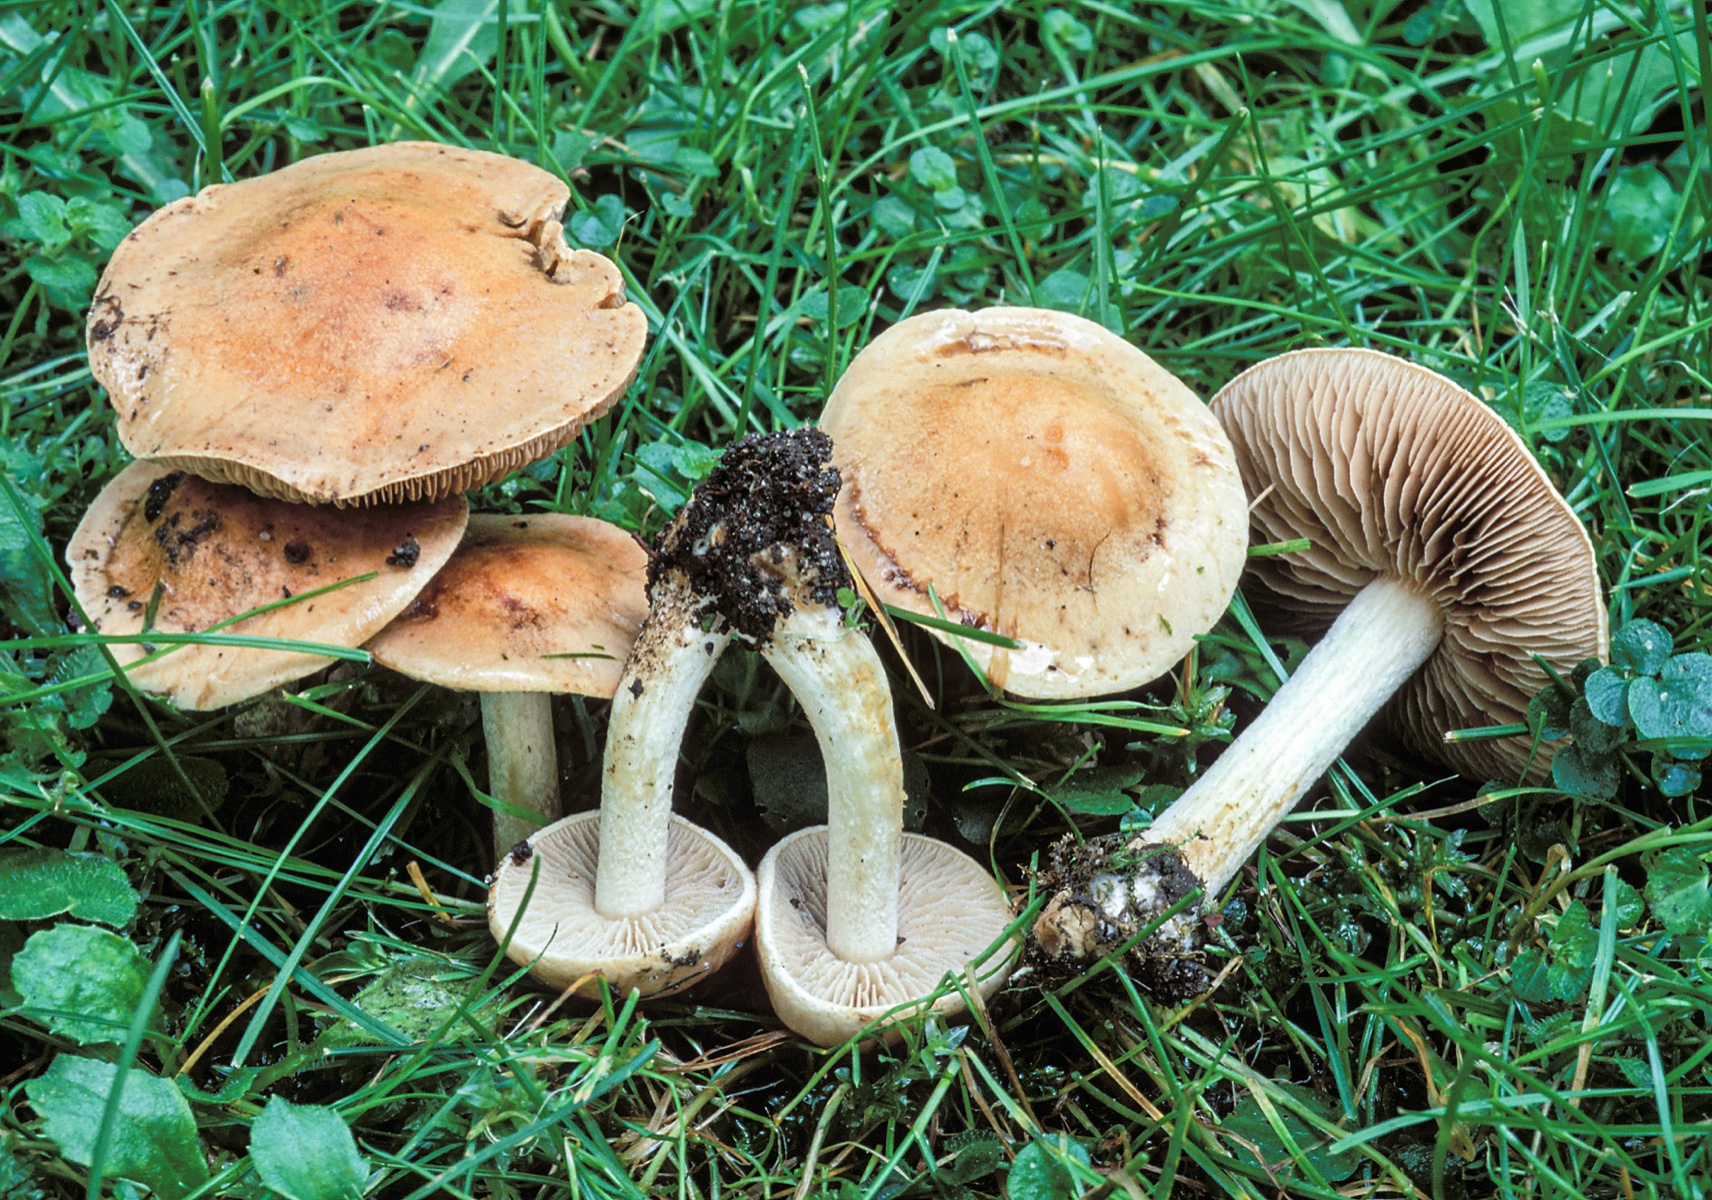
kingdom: Fungi
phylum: Basidiomycota
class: Agaricomycetes
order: Agaricales
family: Hymenogastraceae
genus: Hebeloma
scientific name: Hebeloma aestivale
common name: sommer-tåreblad
